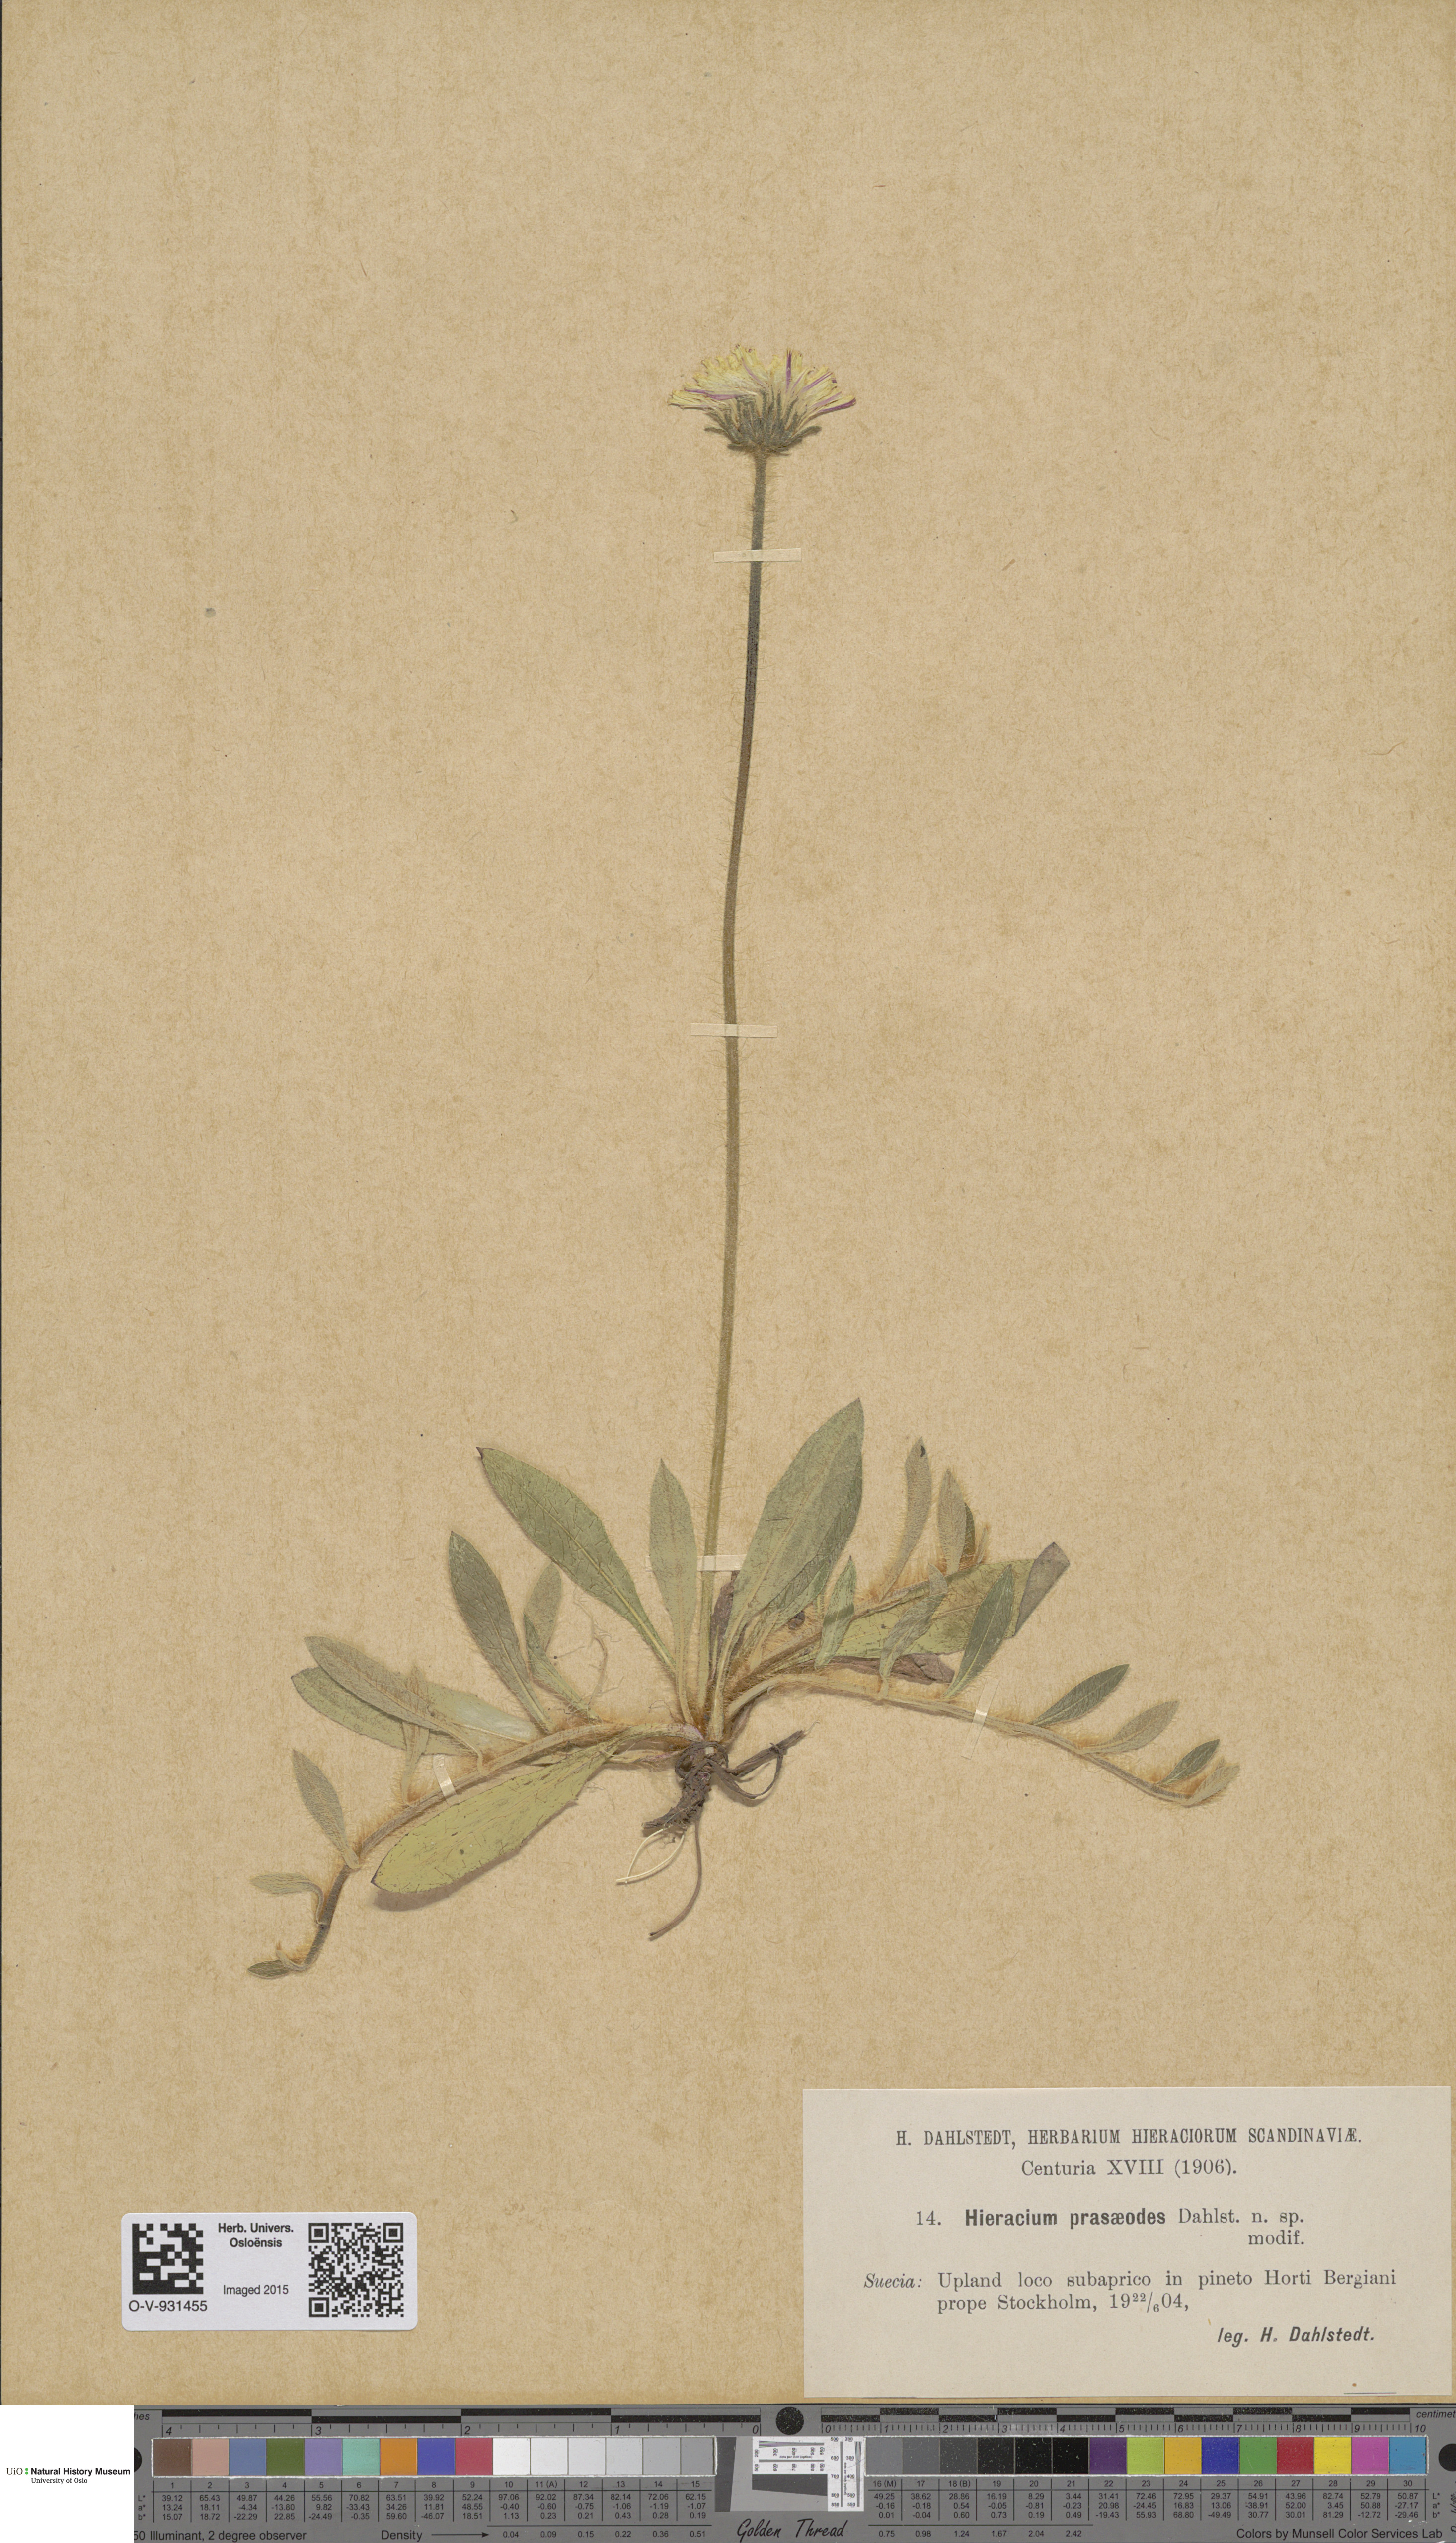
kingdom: Plantae
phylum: Tracheophyta
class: Magnoliopsida
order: Asterales
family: Asteraceae
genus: Hieracium
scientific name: Hieracium
